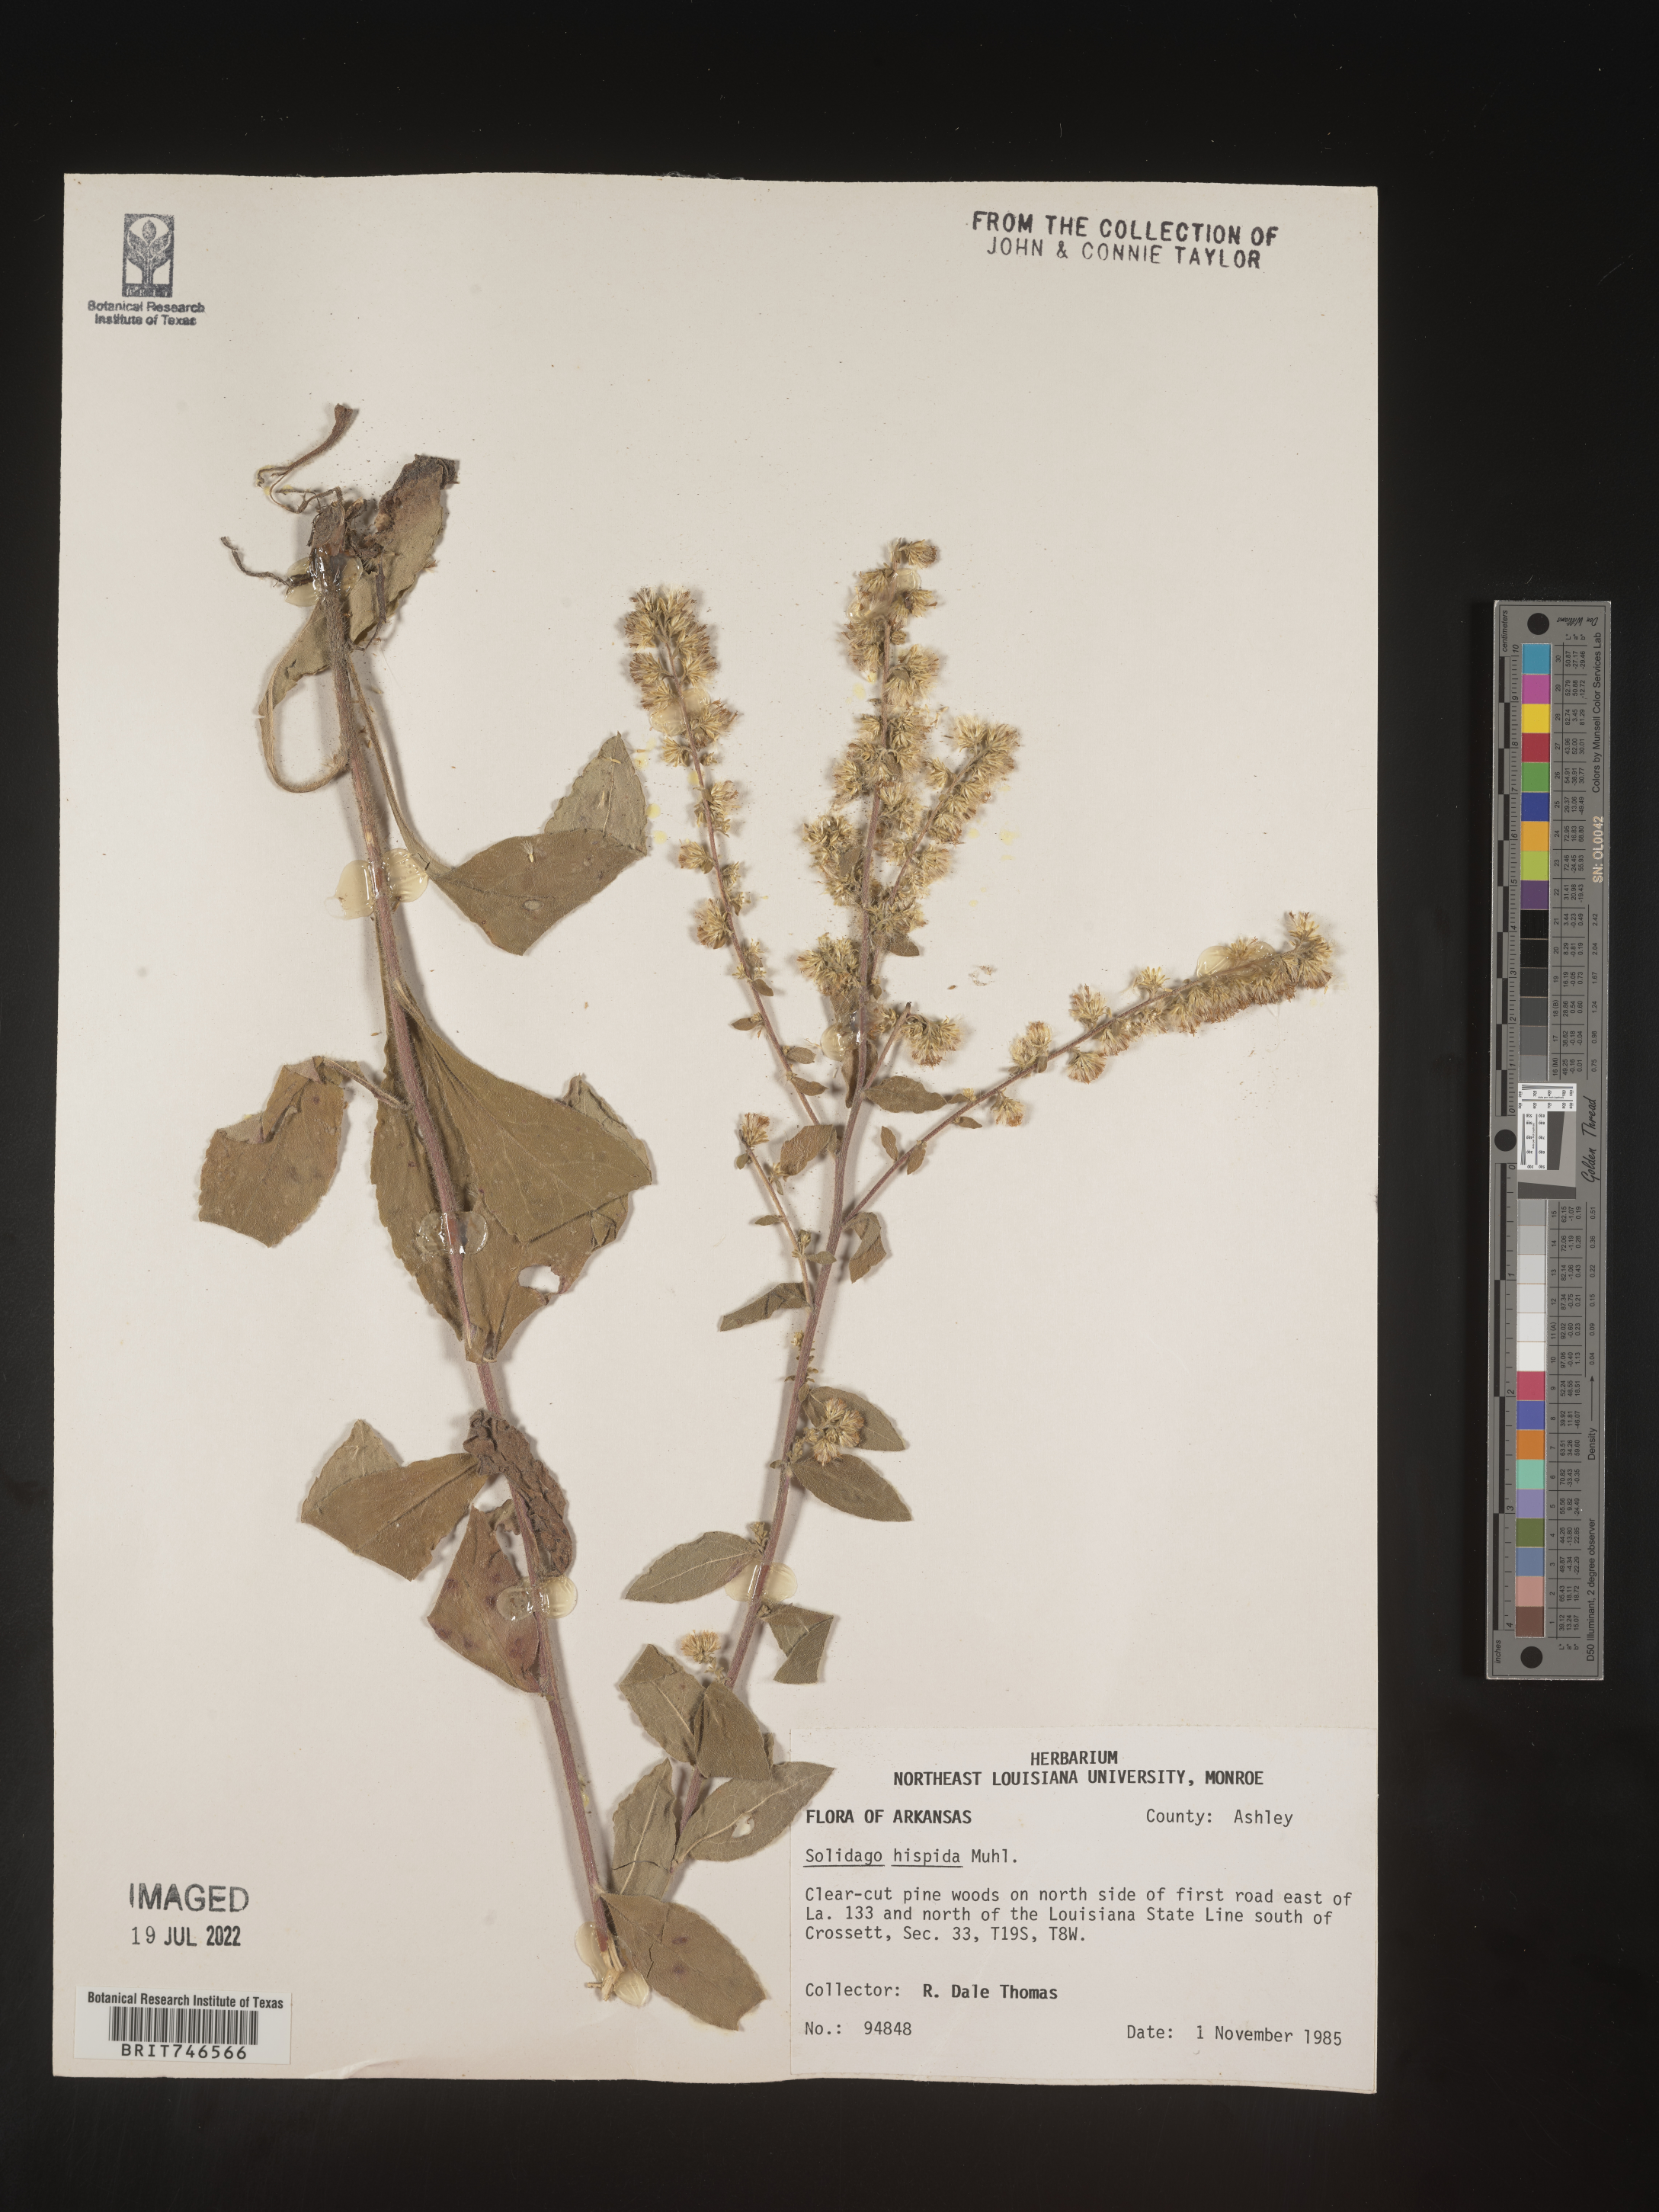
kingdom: Plantae
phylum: Tracheophyta
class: Magnoliopsida
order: Asterales
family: Asteraceae
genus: Solidago
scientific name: Solidago hispida
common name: Hairy goldenrod
